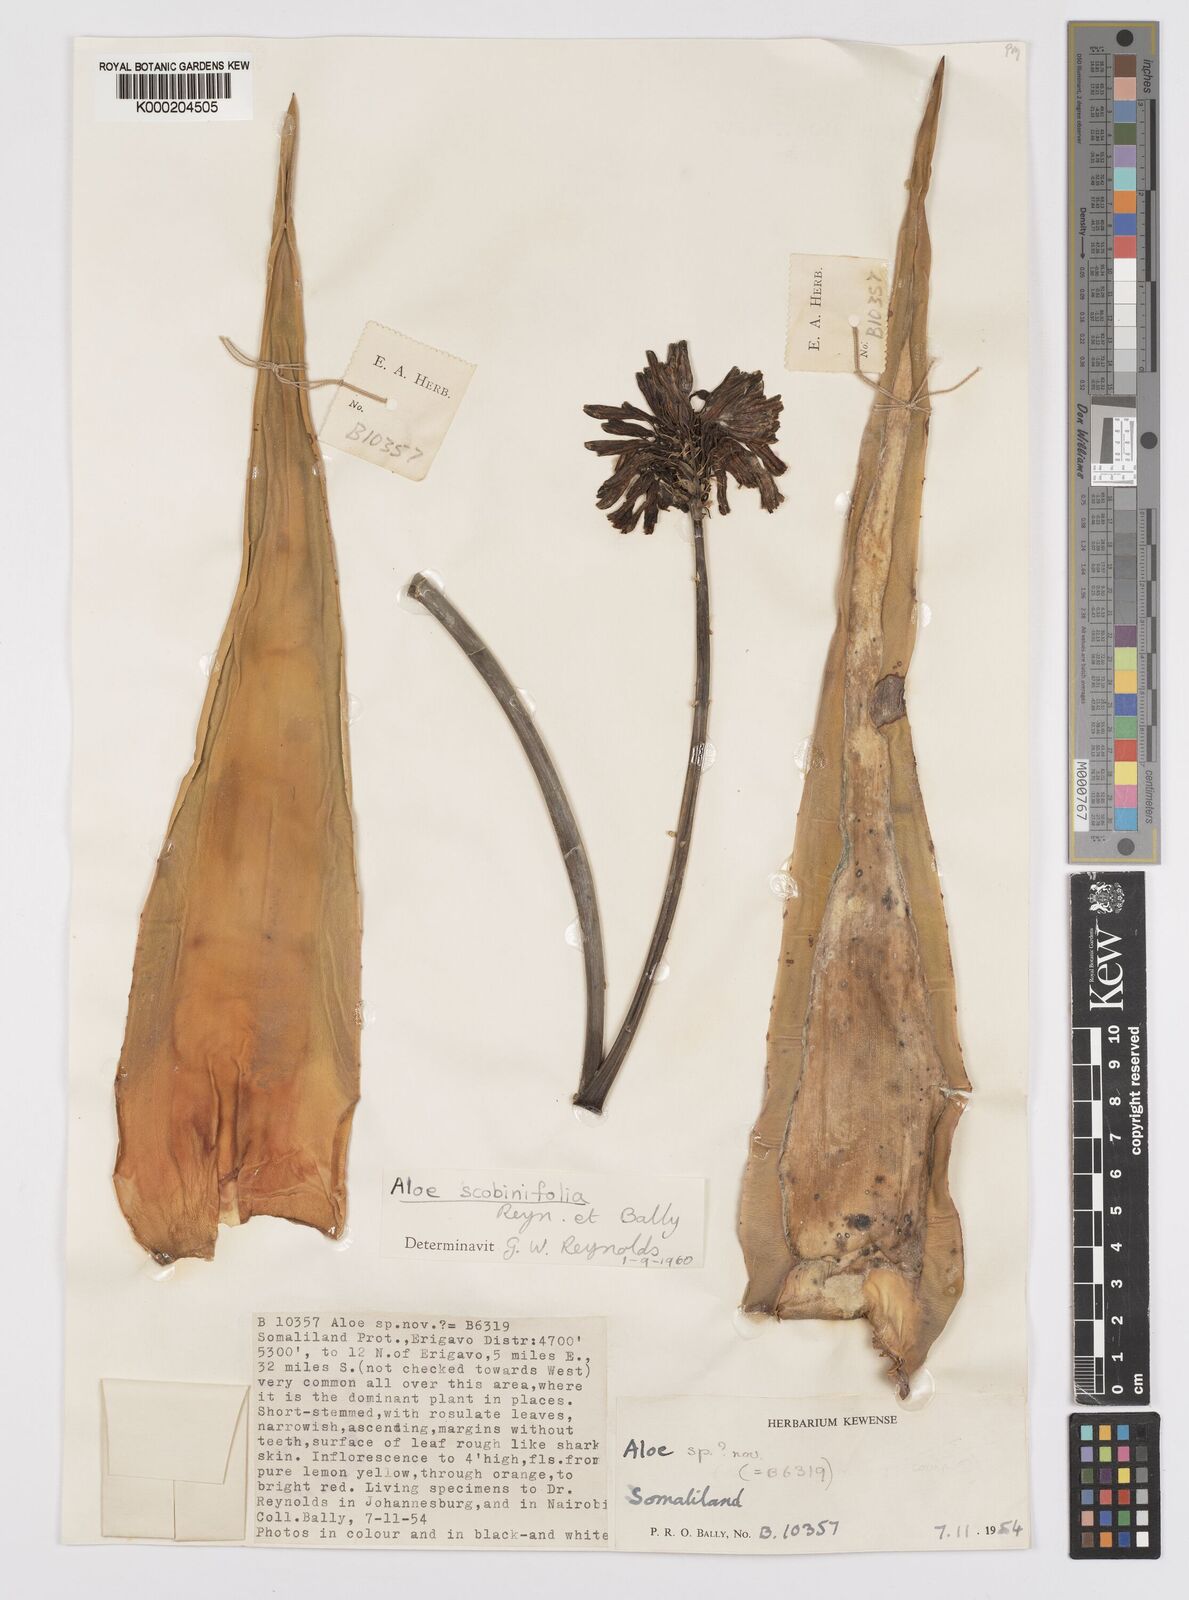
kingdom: Plantae
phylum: Tracheophyta
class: Liliopsida
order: Asparagales
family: Asphodelaceae
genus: Aloe
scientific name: Aloe scobinifolia
